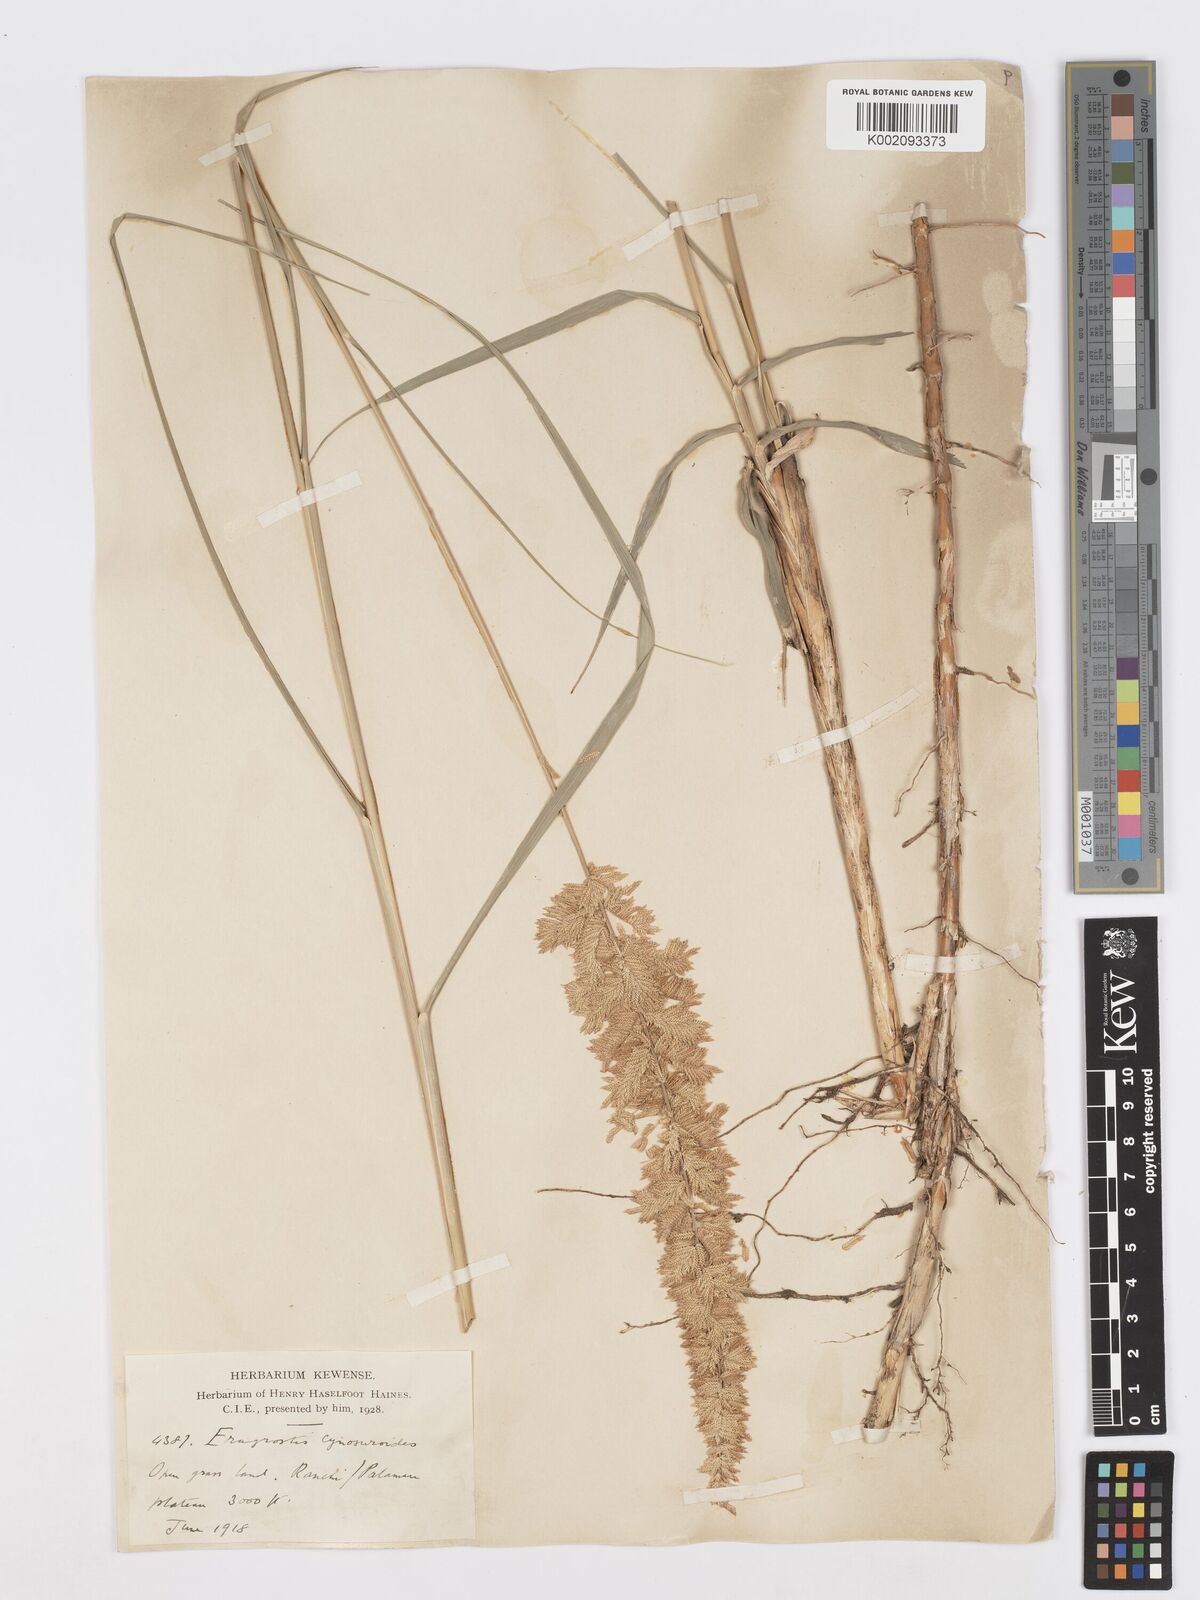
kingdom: Plantae
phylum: Tracheophyta
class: Liliopsida
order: Poales
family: Poaceae
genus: Desmostachya
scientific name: Desmostachya bipinnata
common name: Crowfoot grass
